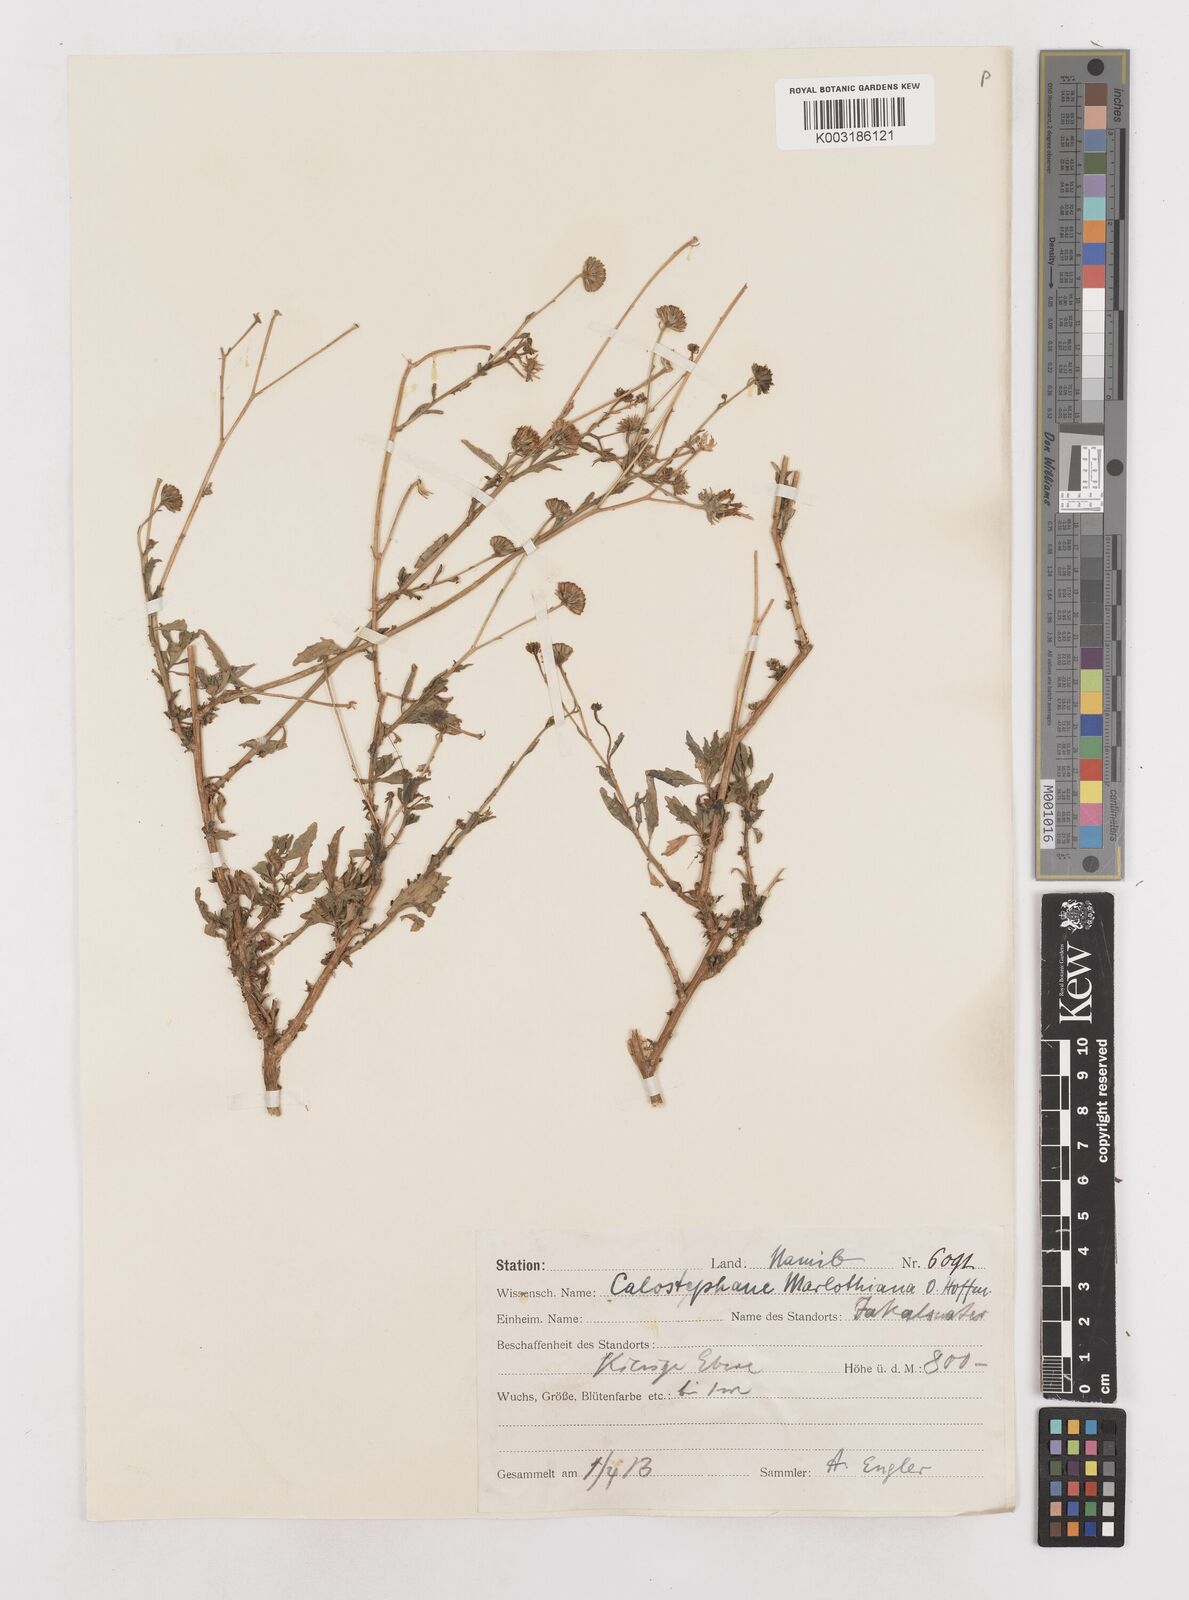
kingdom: Plantae
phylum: Tracheophyta
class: Magnoliopsida
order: Asterales
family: Asteraceae
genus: Calostephane
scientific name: Calostephane marlothiana
